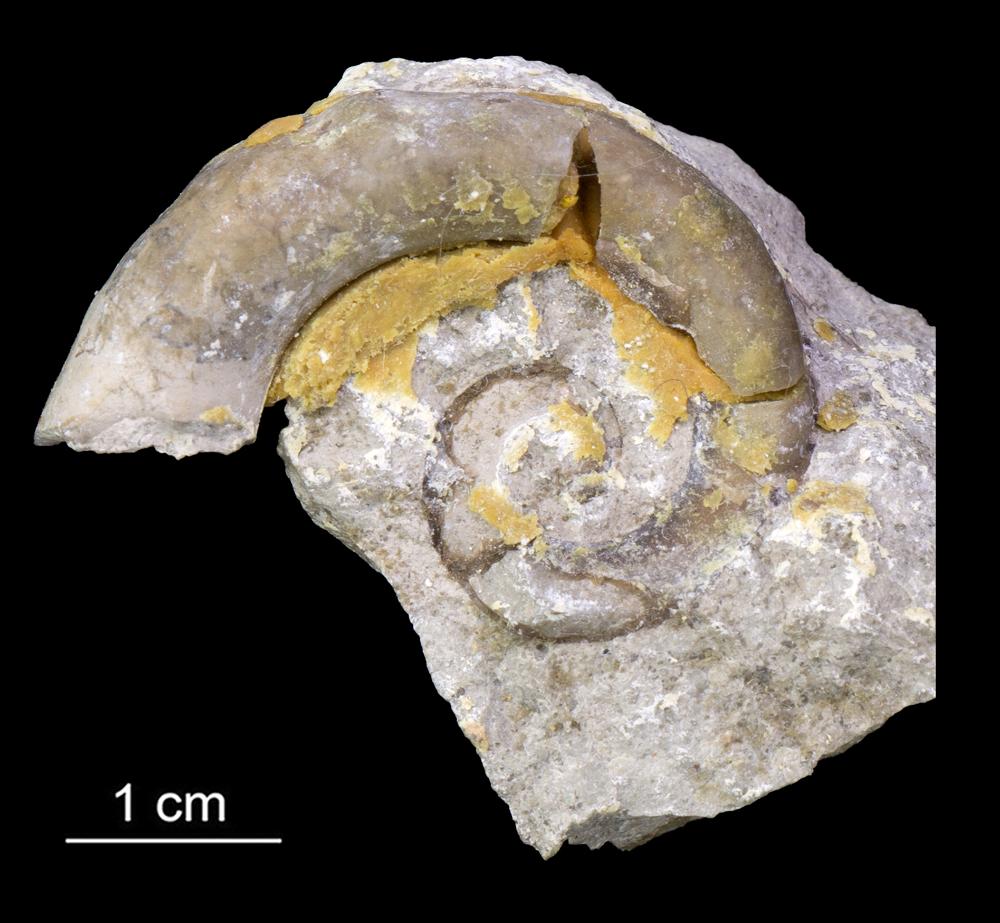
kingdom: Animalia
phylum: Mollusca
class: Gastropoda
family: Lesueurillidae
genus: Lesueurilla
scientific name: Lesueurilla
